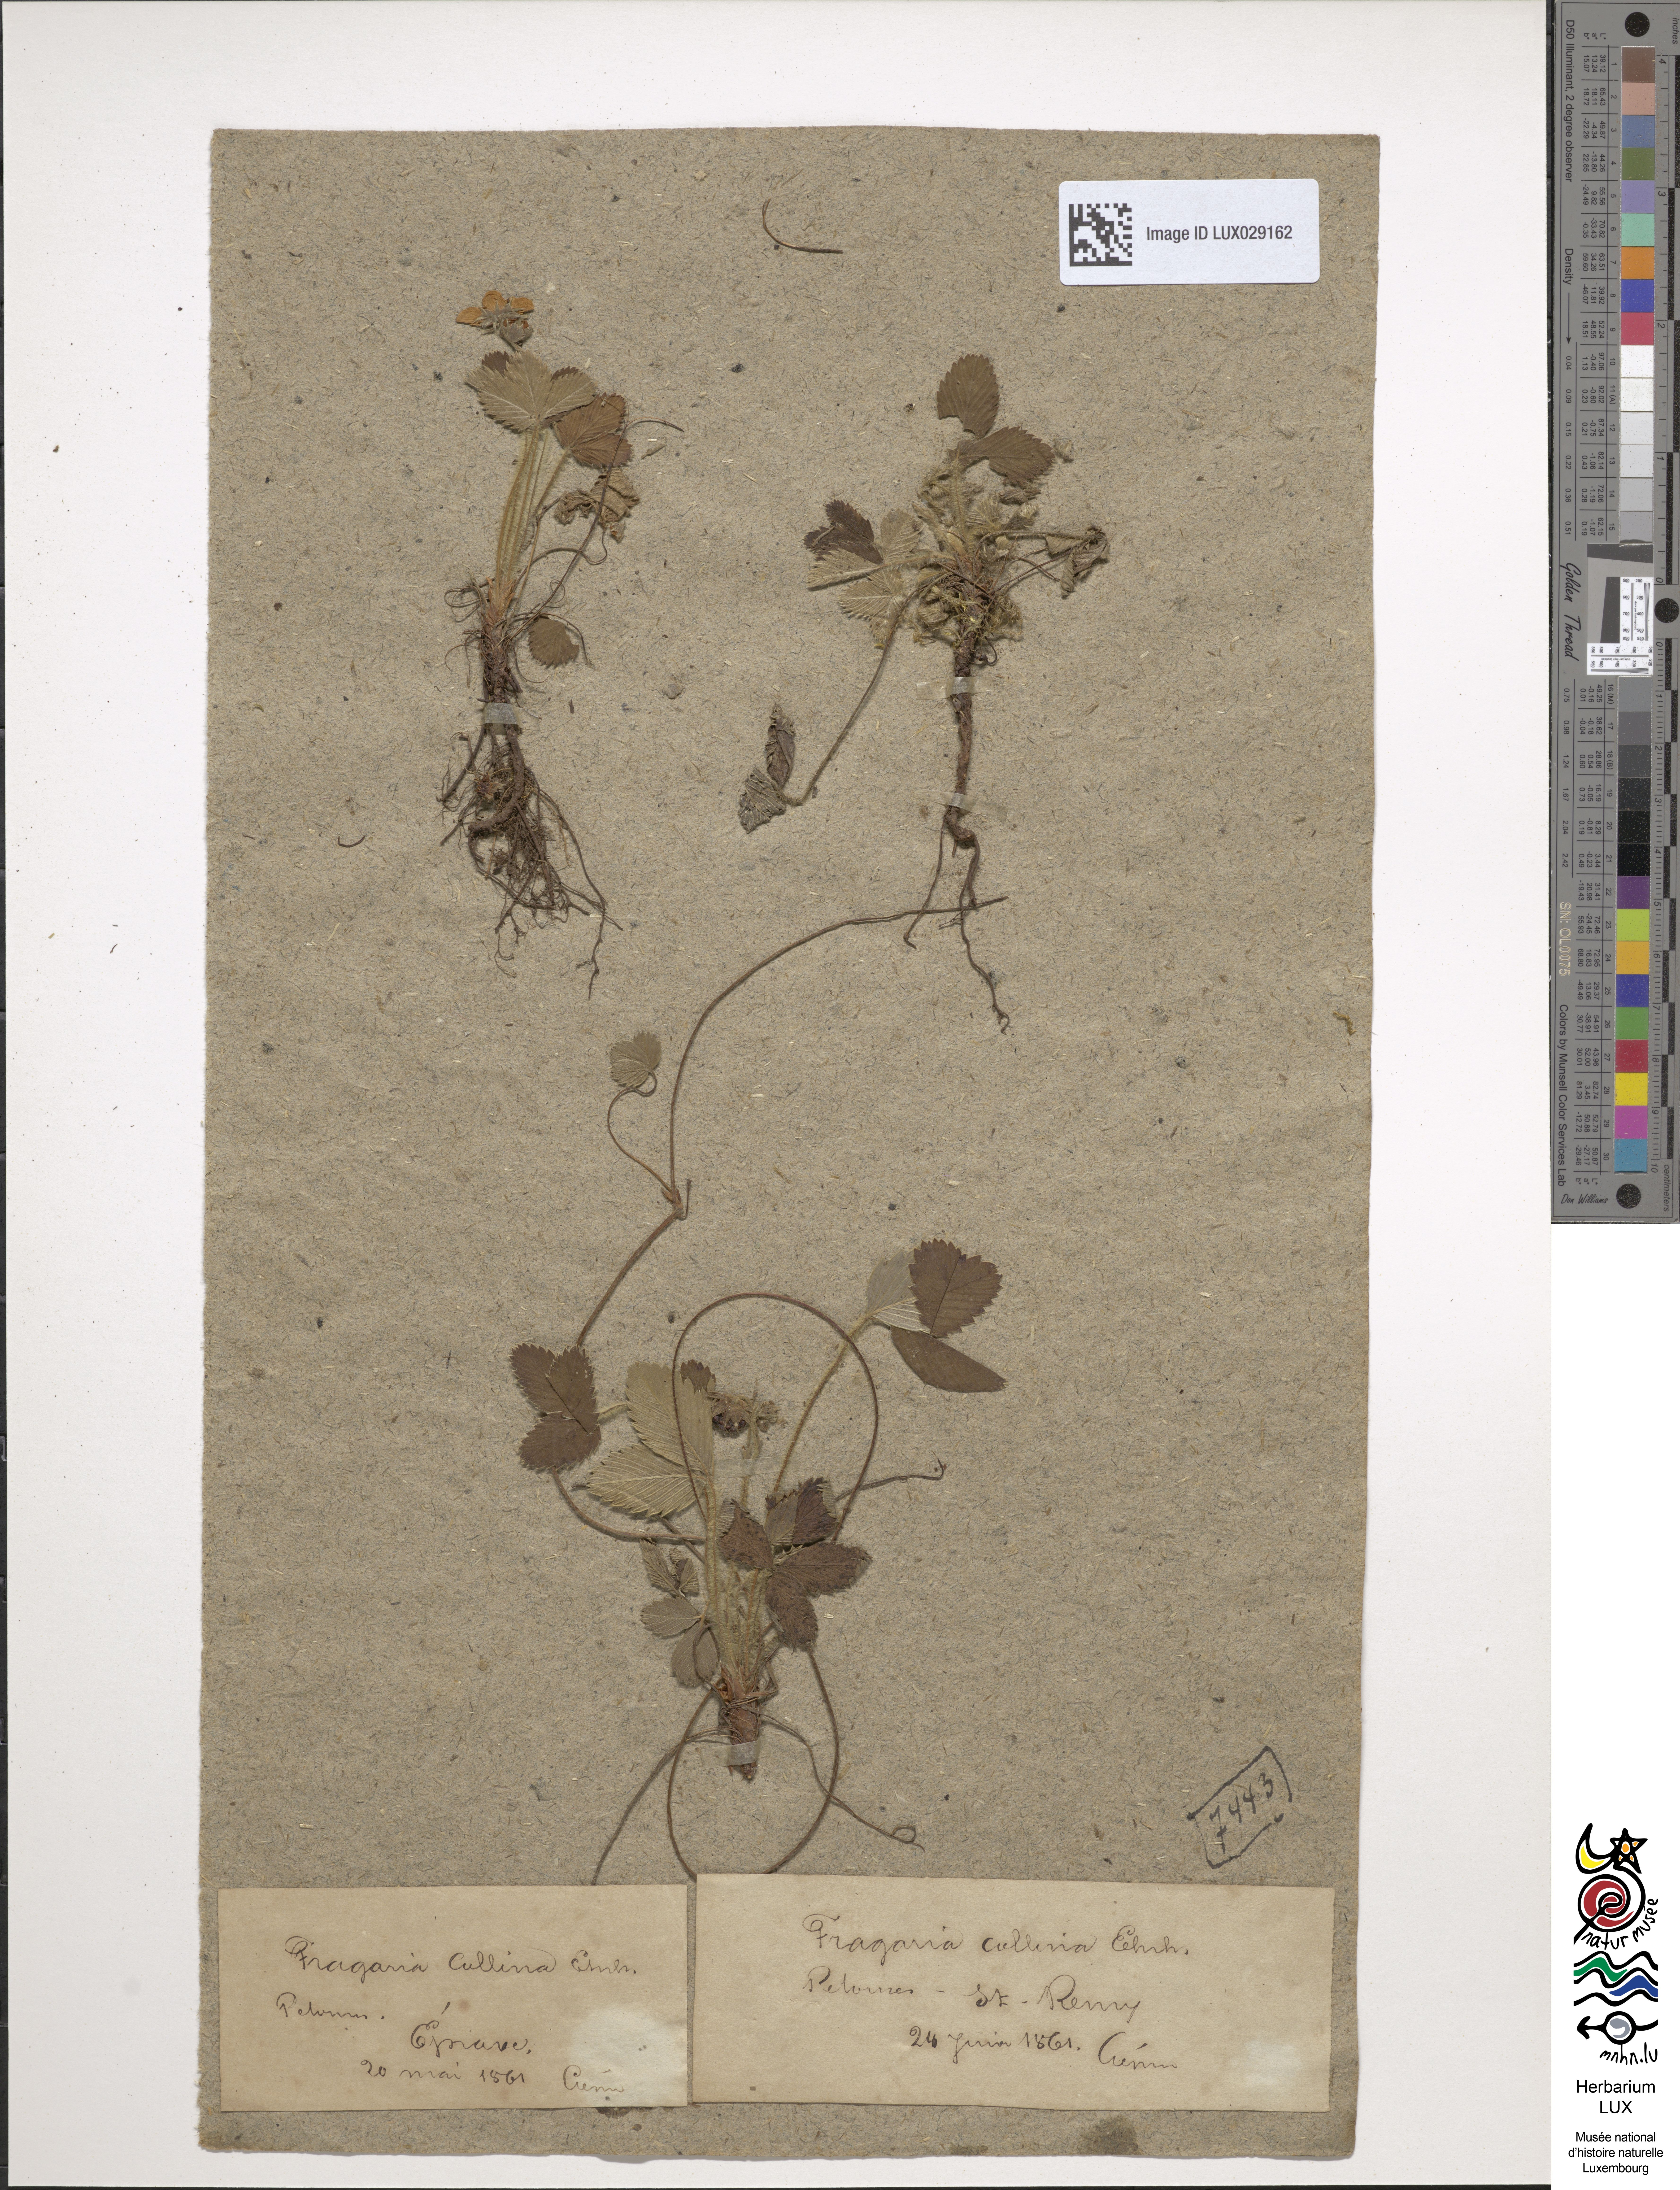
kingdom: Plantae
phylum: Tracheophyta
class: Magnoliopsida
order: Rosales
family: Rosaceae
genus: Fragaria
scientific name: Fragaria viridis
